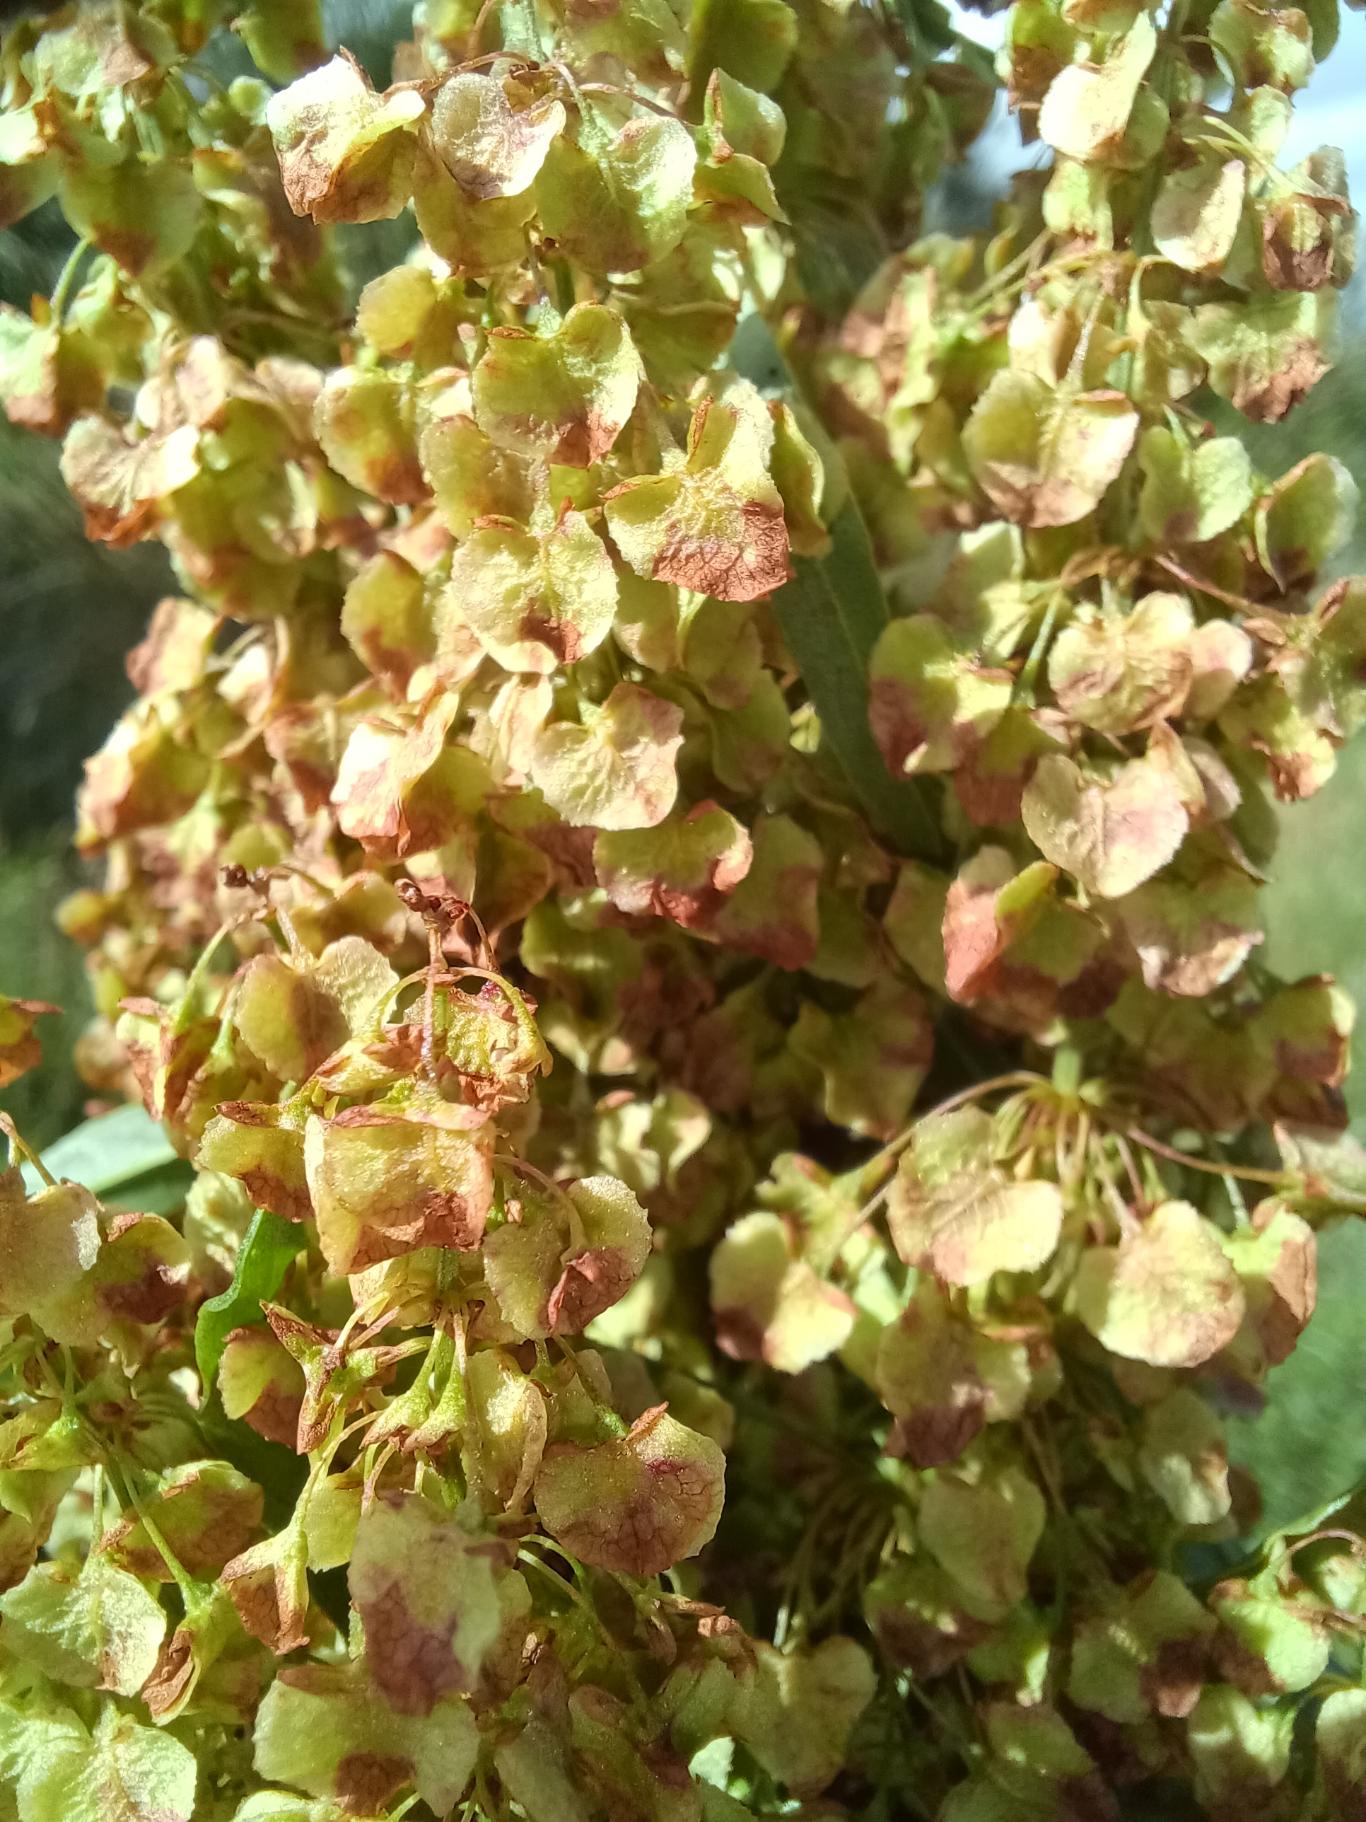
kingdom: Plantae
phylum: Tracheophyta
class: Magnoliopsida
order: Caryophyllales
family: Polygonaceae
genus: Rumex
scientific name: Rumex longifolius
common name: By-skræppe
